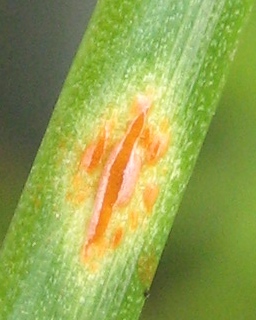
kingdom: Fungi
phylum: Basidiomycota
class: Pucciniomycetes
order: Pucciniales
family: Pucciniaceae
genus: Puccinia
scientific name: Puccinia porri
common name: Allium rust
